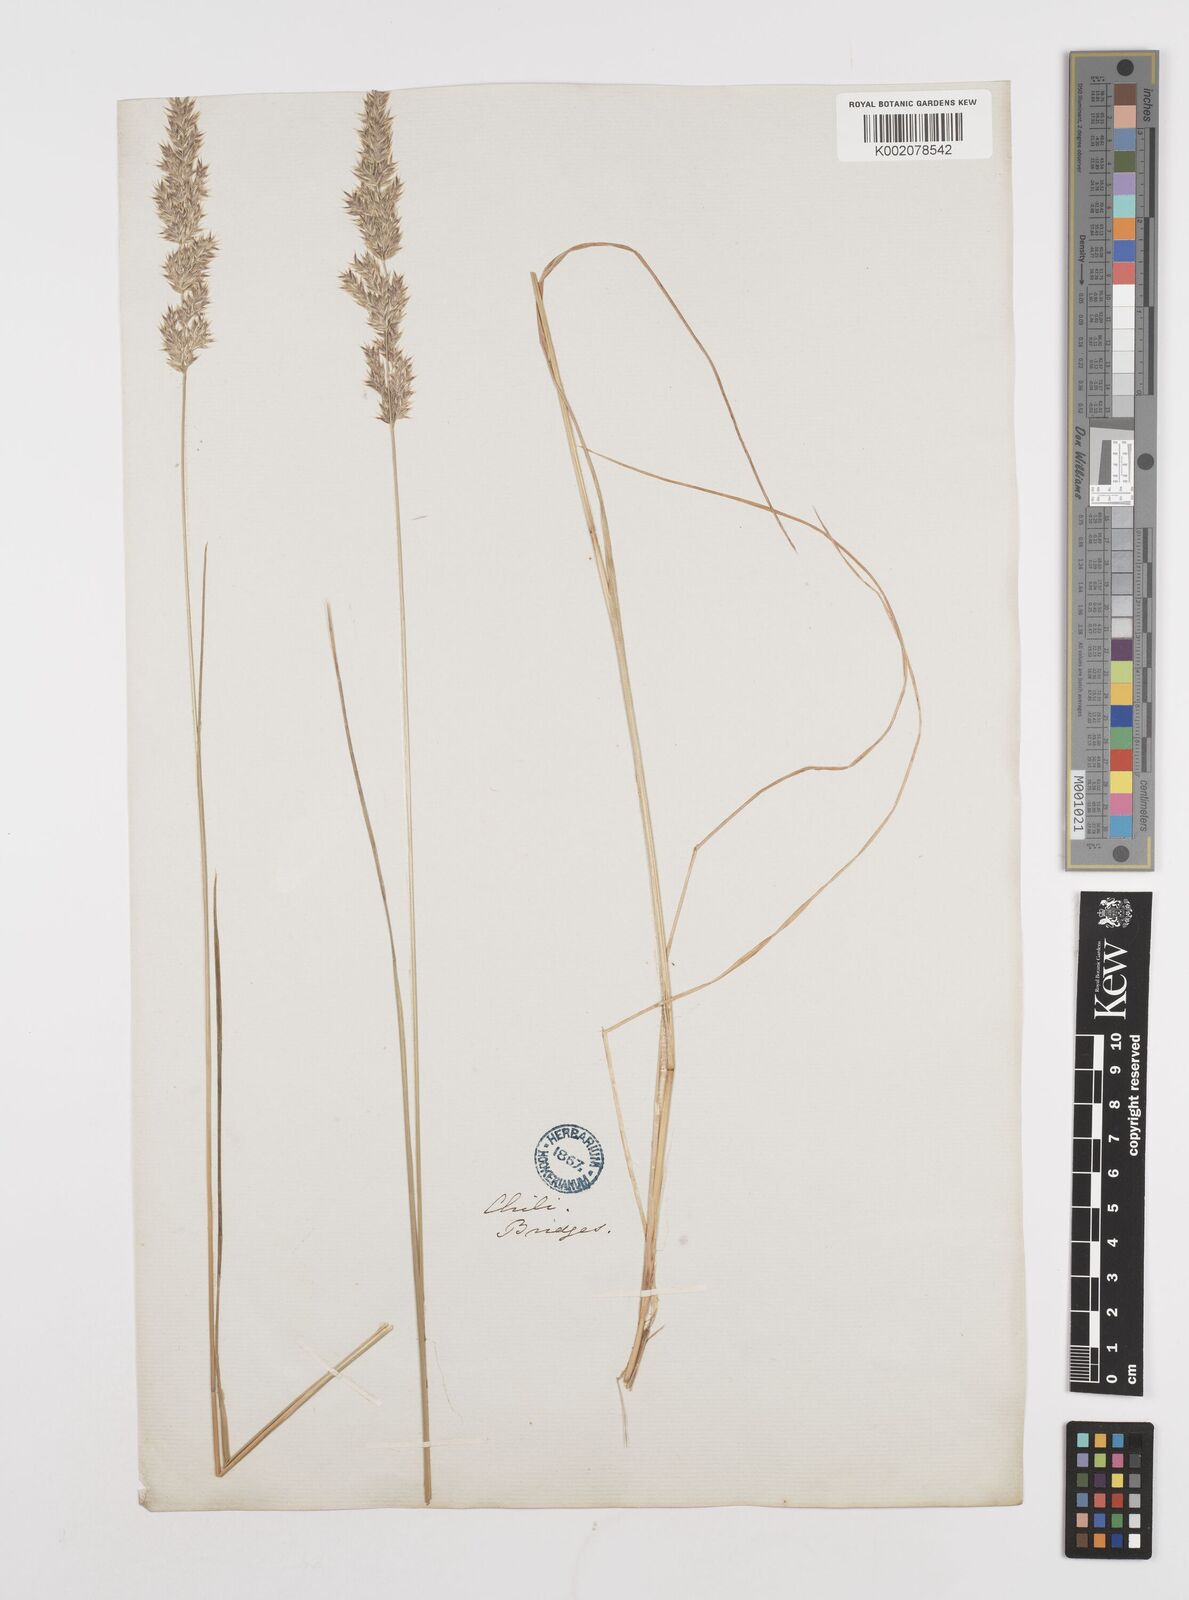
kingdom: Plantae
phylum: Tracheophyta
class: Liliopsida
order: Poales
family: Poaceae
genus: Poa
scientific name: Poa lanuginosa
